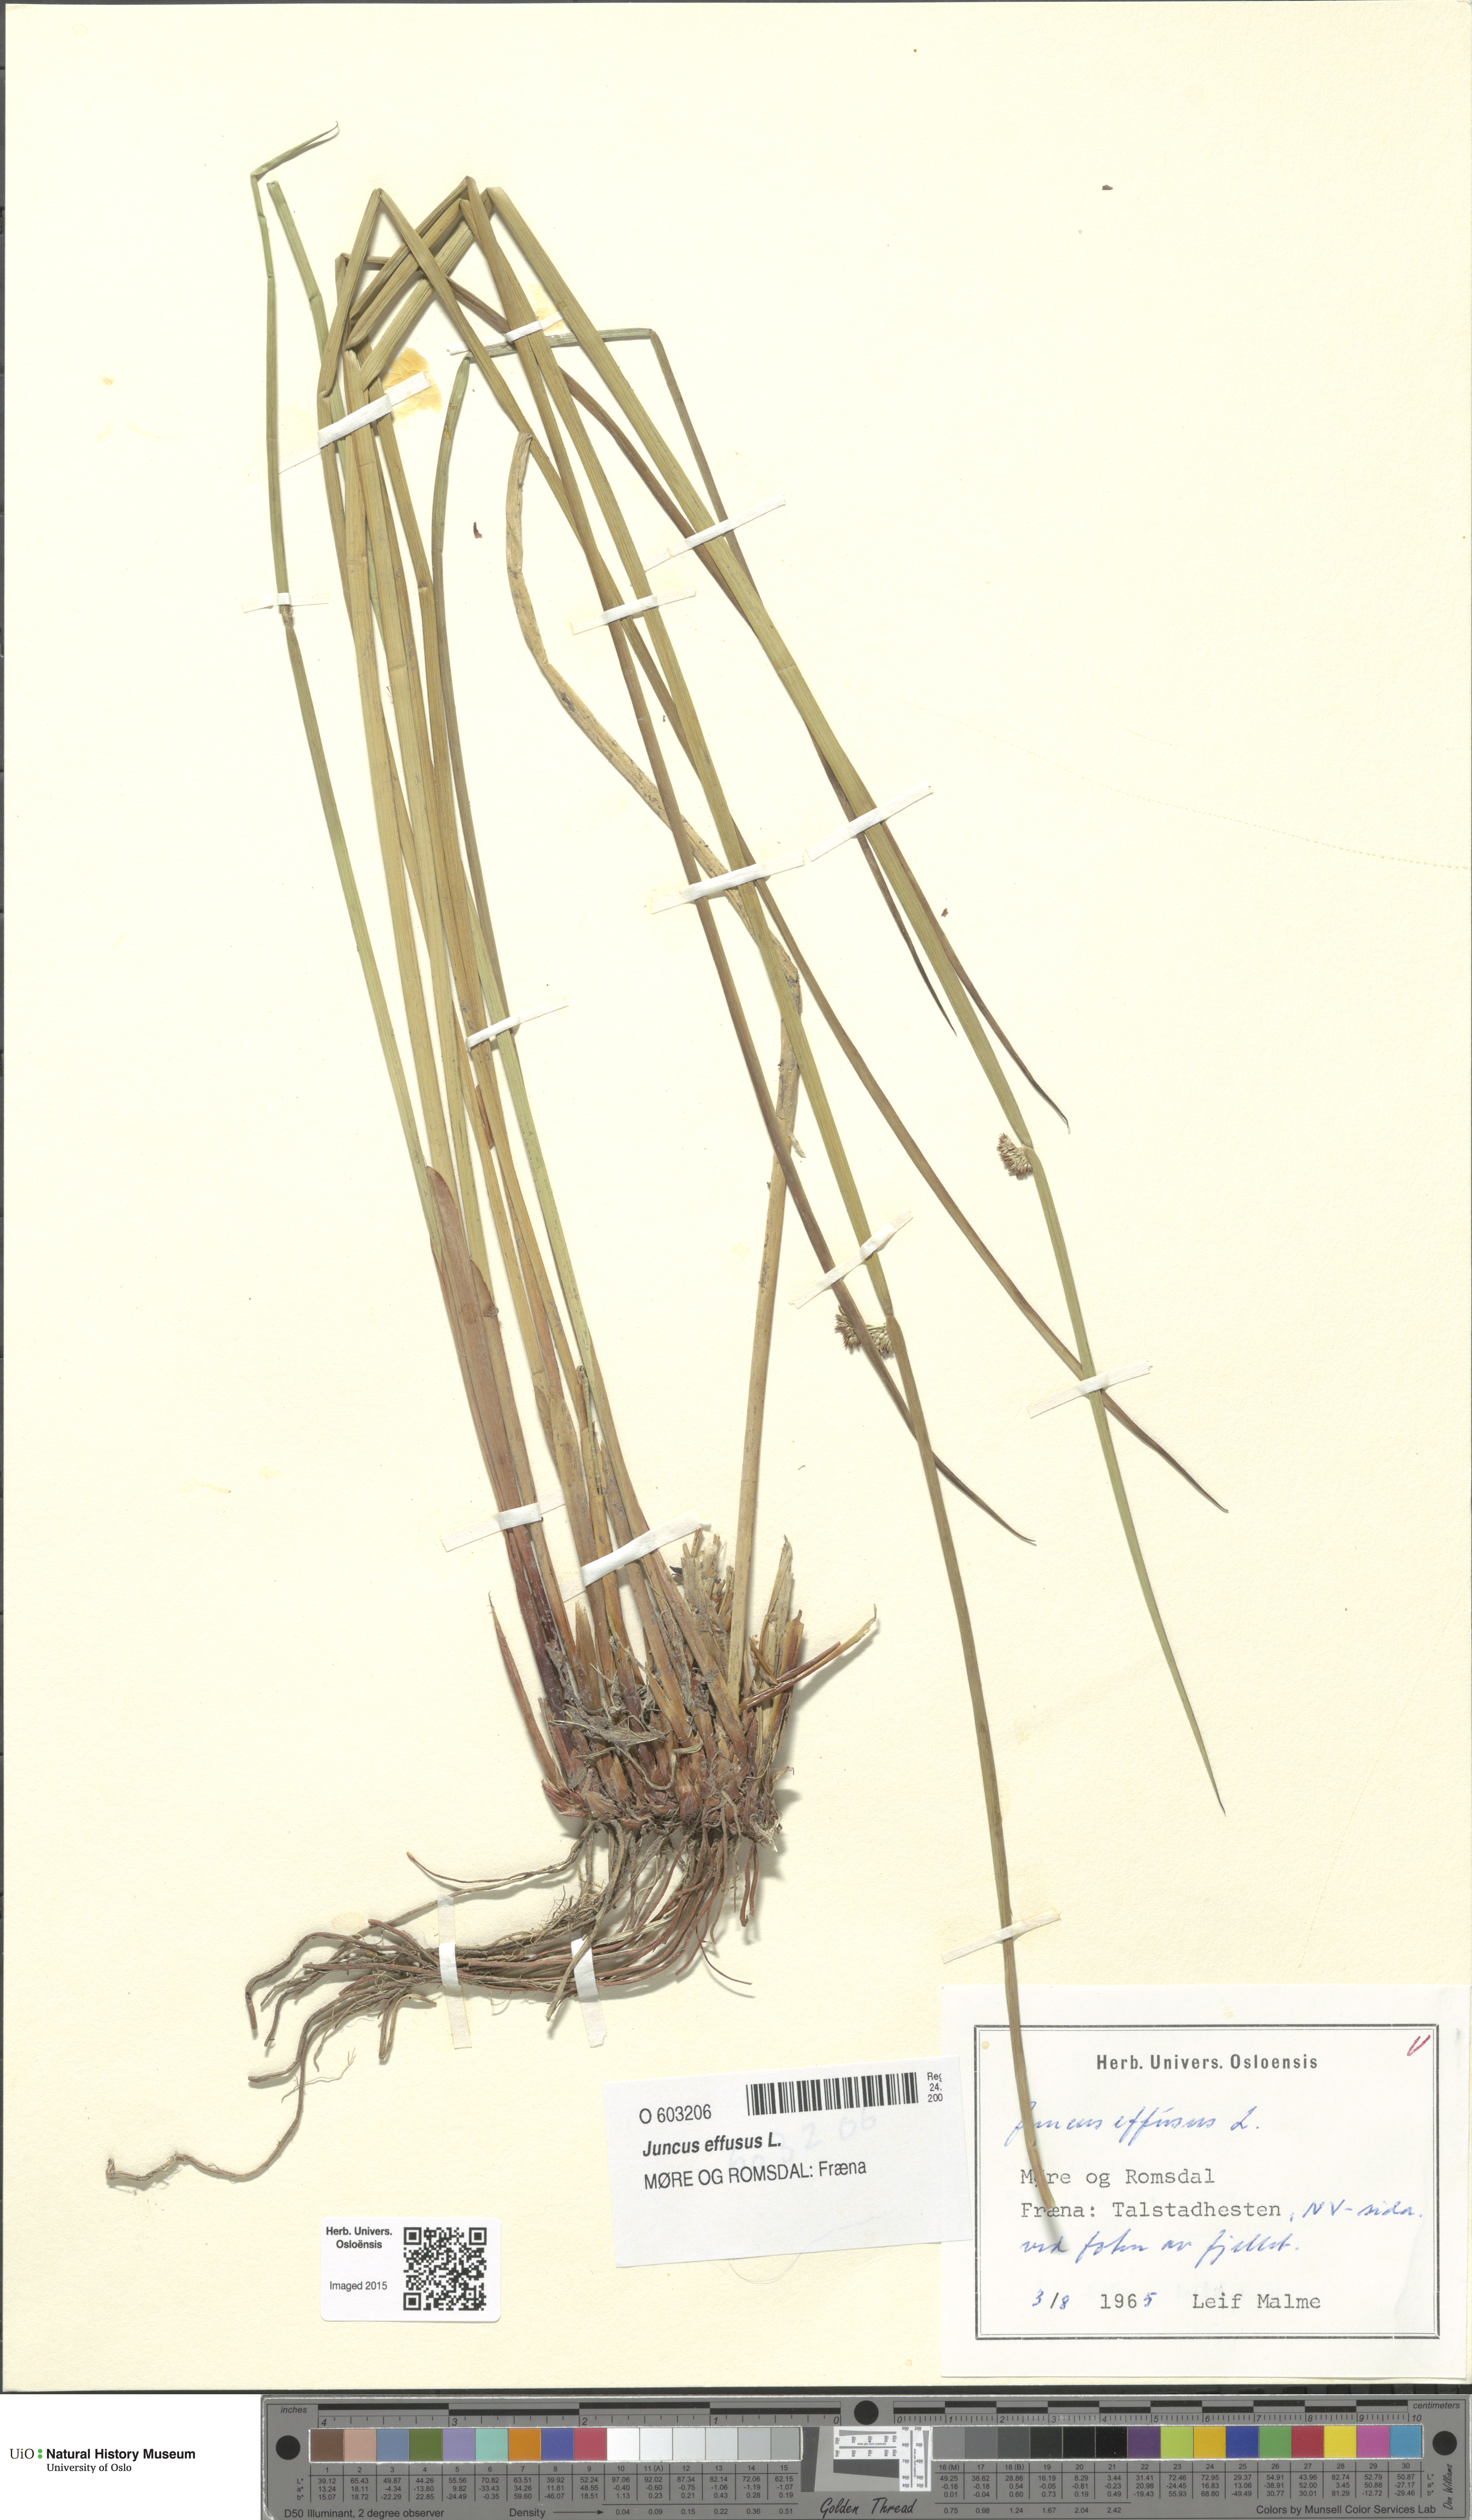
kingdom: Plantae
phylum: Tracheophyta
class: Liliopsida
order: Poales
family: Juncaceae
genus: Juncus
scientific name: Juncus effusus
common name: Soft rush
